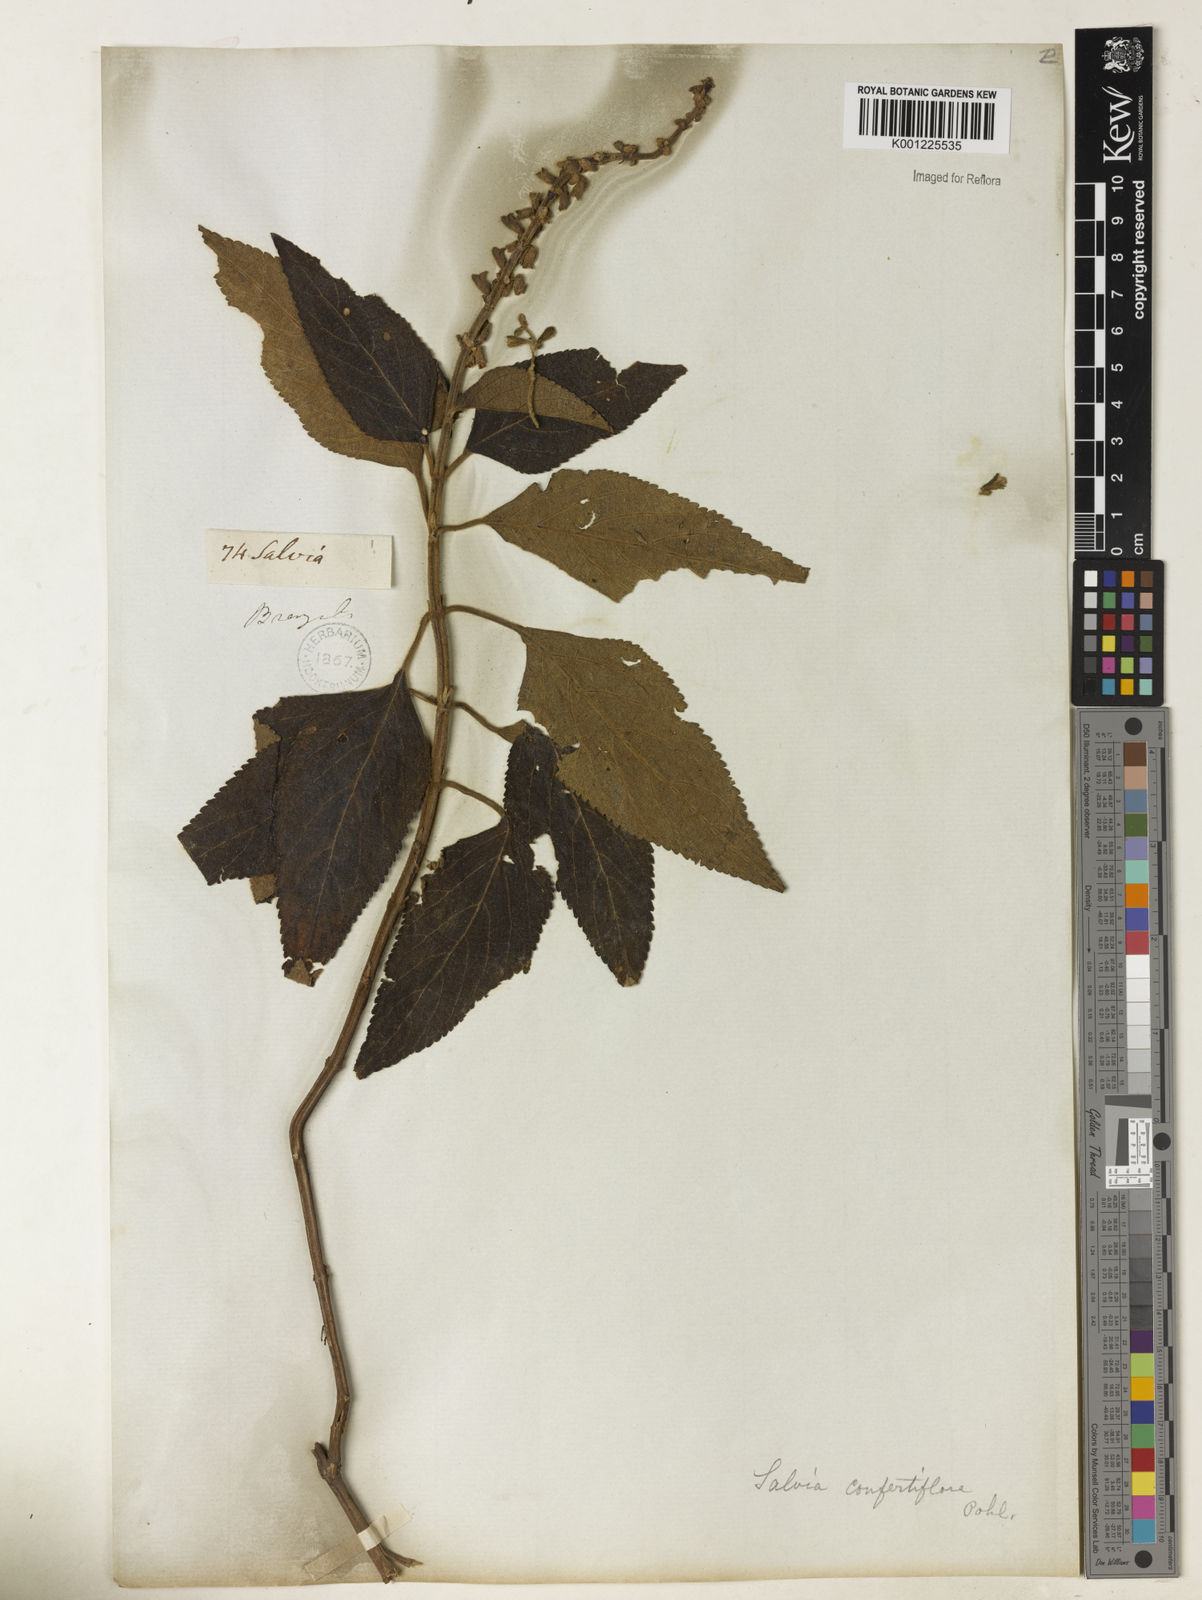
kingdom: Plantae
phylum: Tracheophyta
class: Magnoliopsida
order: Lamiales
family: Lamiaceae
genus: Salvia
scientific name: Salvia confertiflora
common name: Sabra-spike sage
